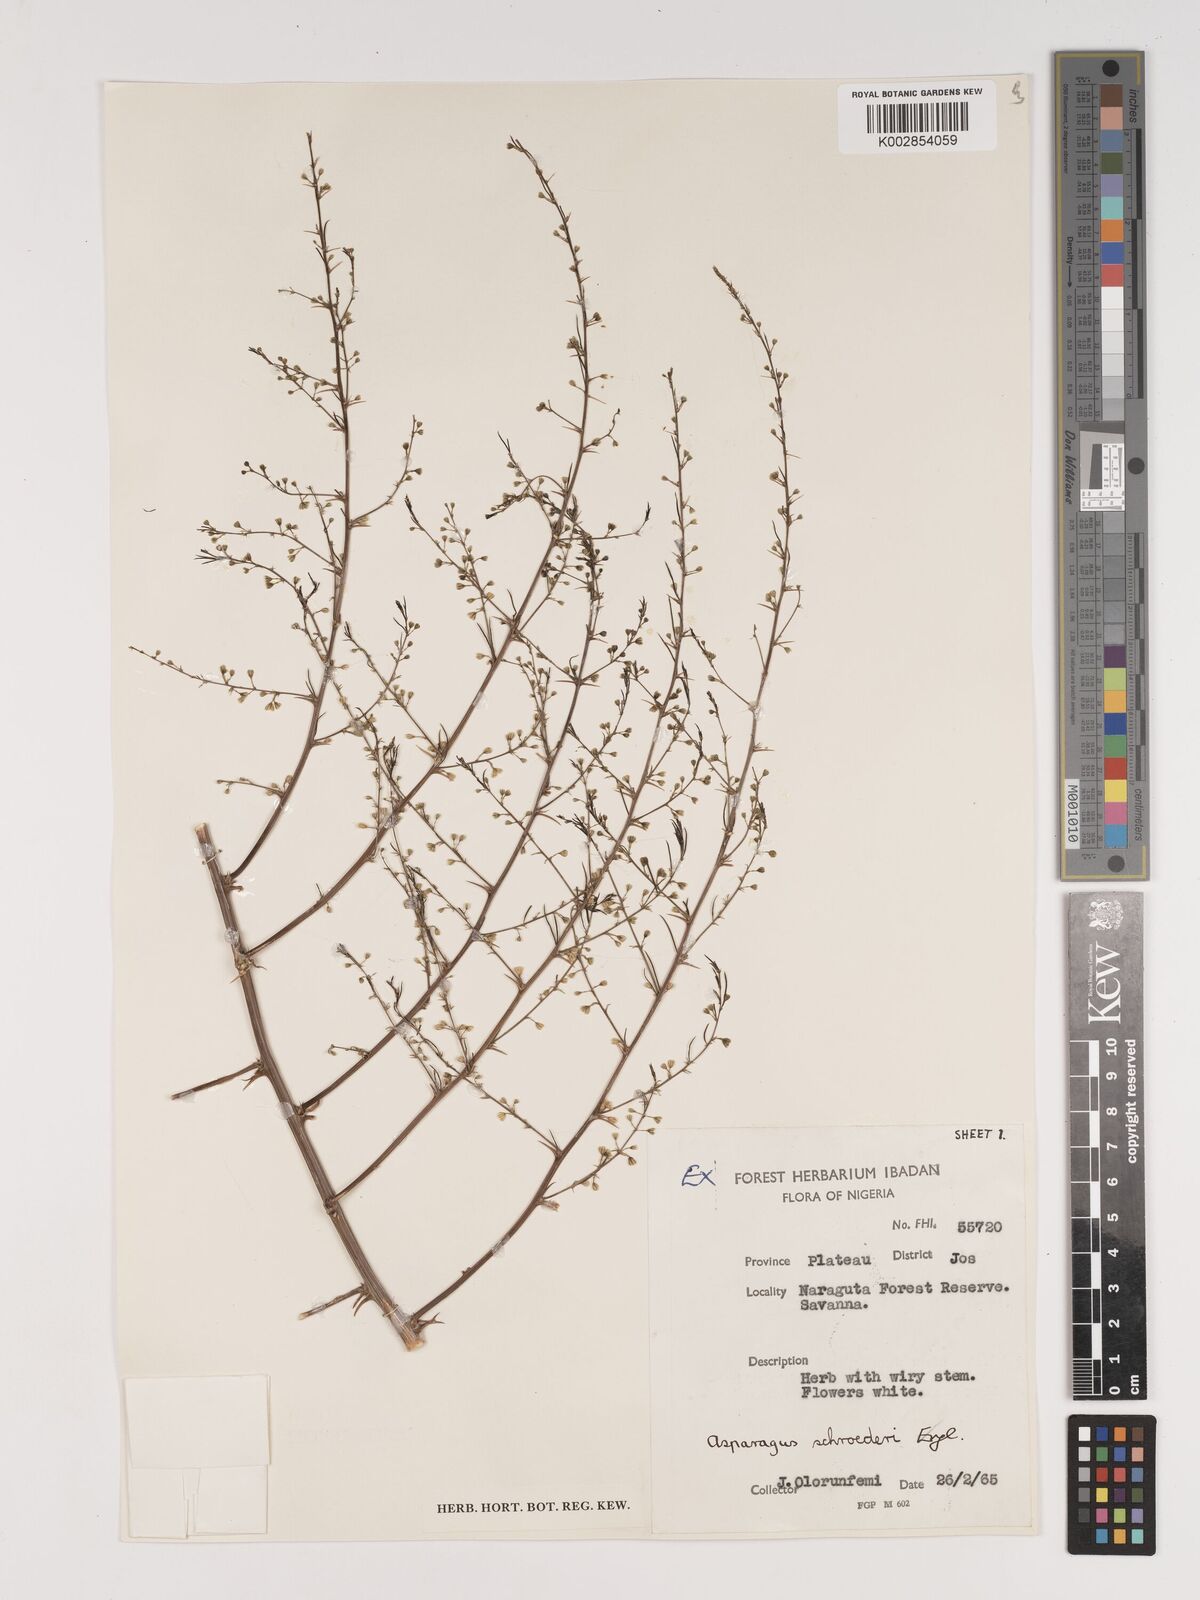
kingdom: Plantae
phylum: Tracheophyta
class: Liliopsida
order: Asparagales
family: Asparagaceae
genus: Asparagus
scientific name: Asparagus schroederi
